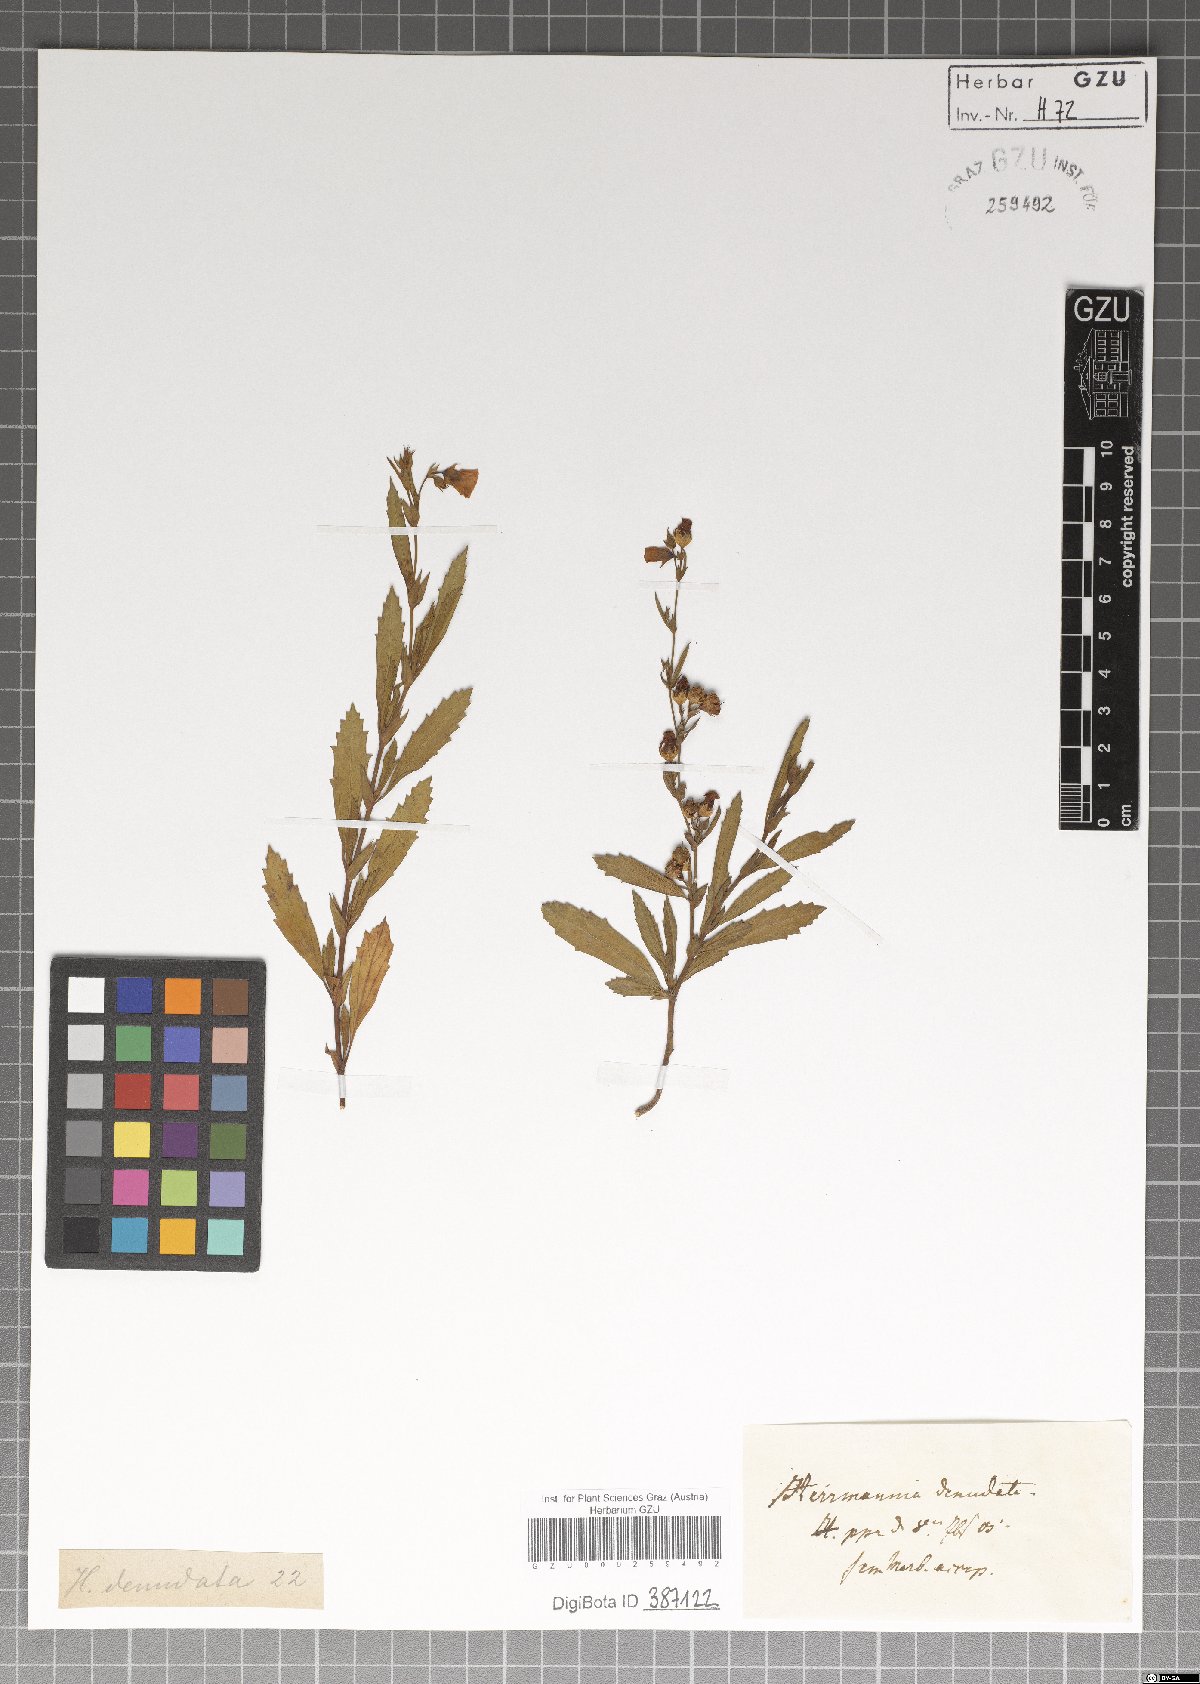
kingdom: Plantae
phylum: Tracheophyta
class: Magnoliopsida
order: Malvales
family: Malvaceae
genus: Hermannia
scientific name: Hermannia denudata
